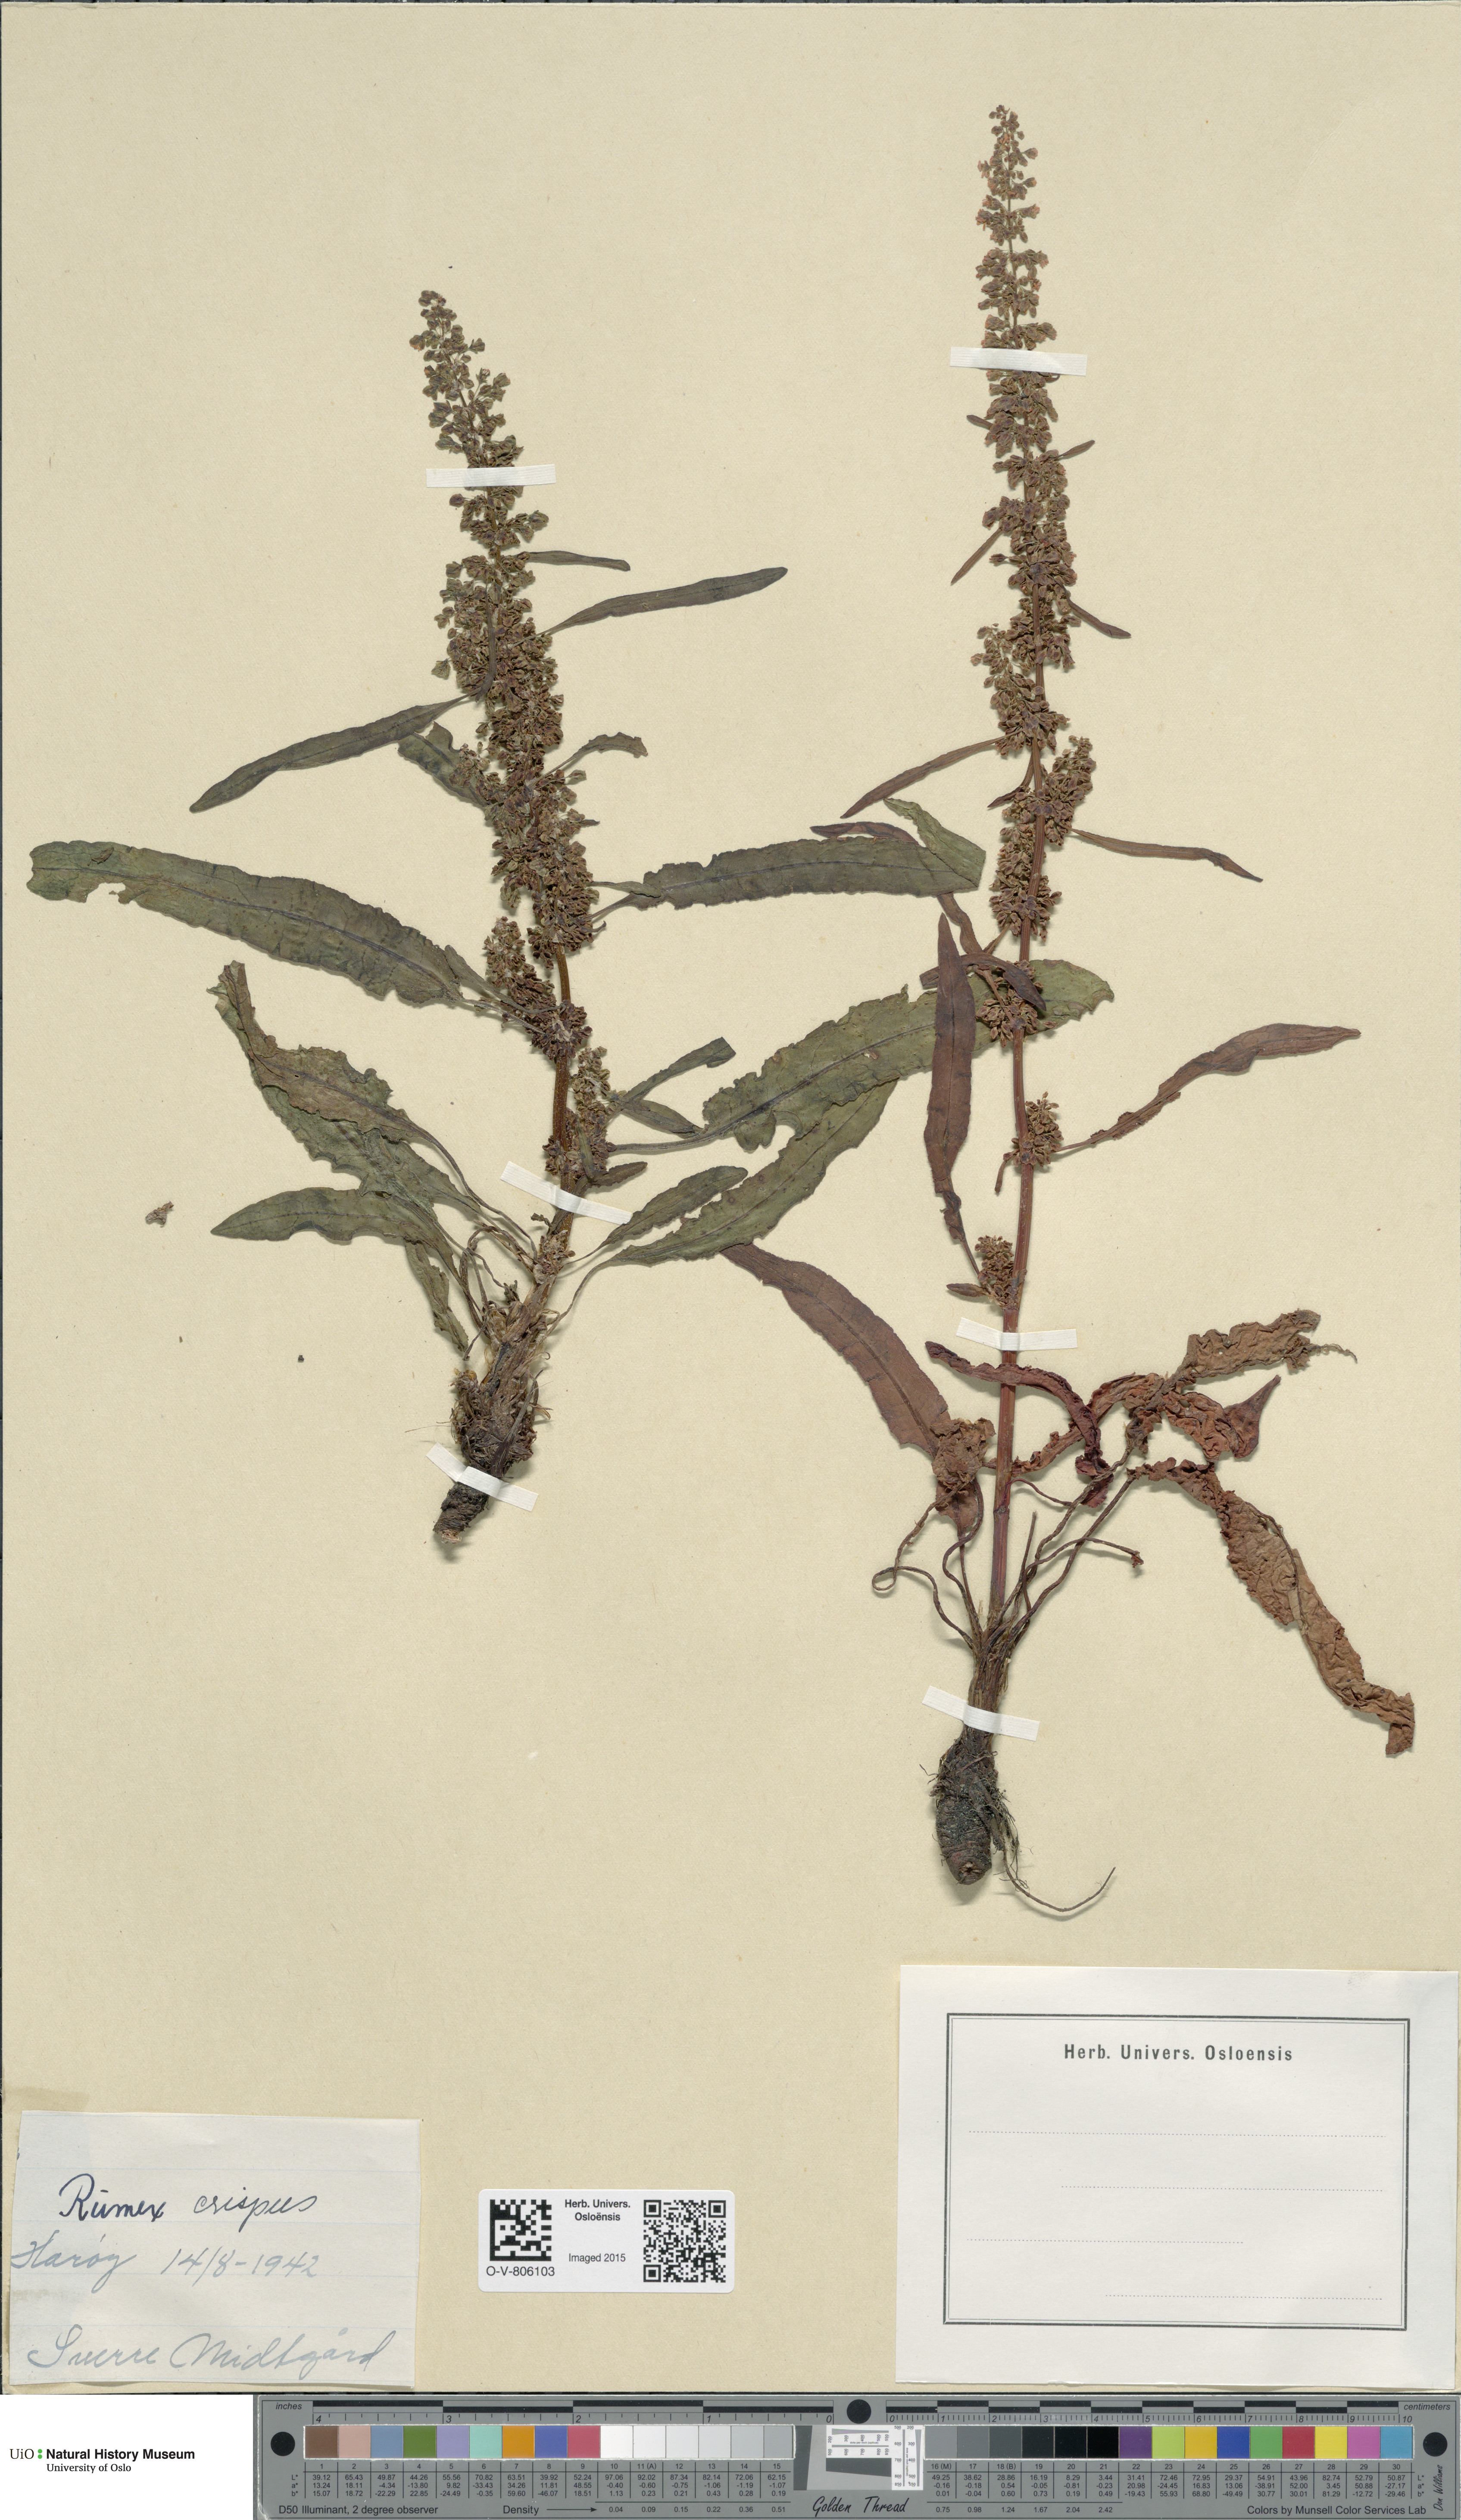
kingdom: Plantae
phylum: Tracheophyta
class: Magnoliopsida
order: Caryophyllales
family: Polygonaceae
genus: Rumex
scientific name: Rumex crispus
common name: Curled dock
